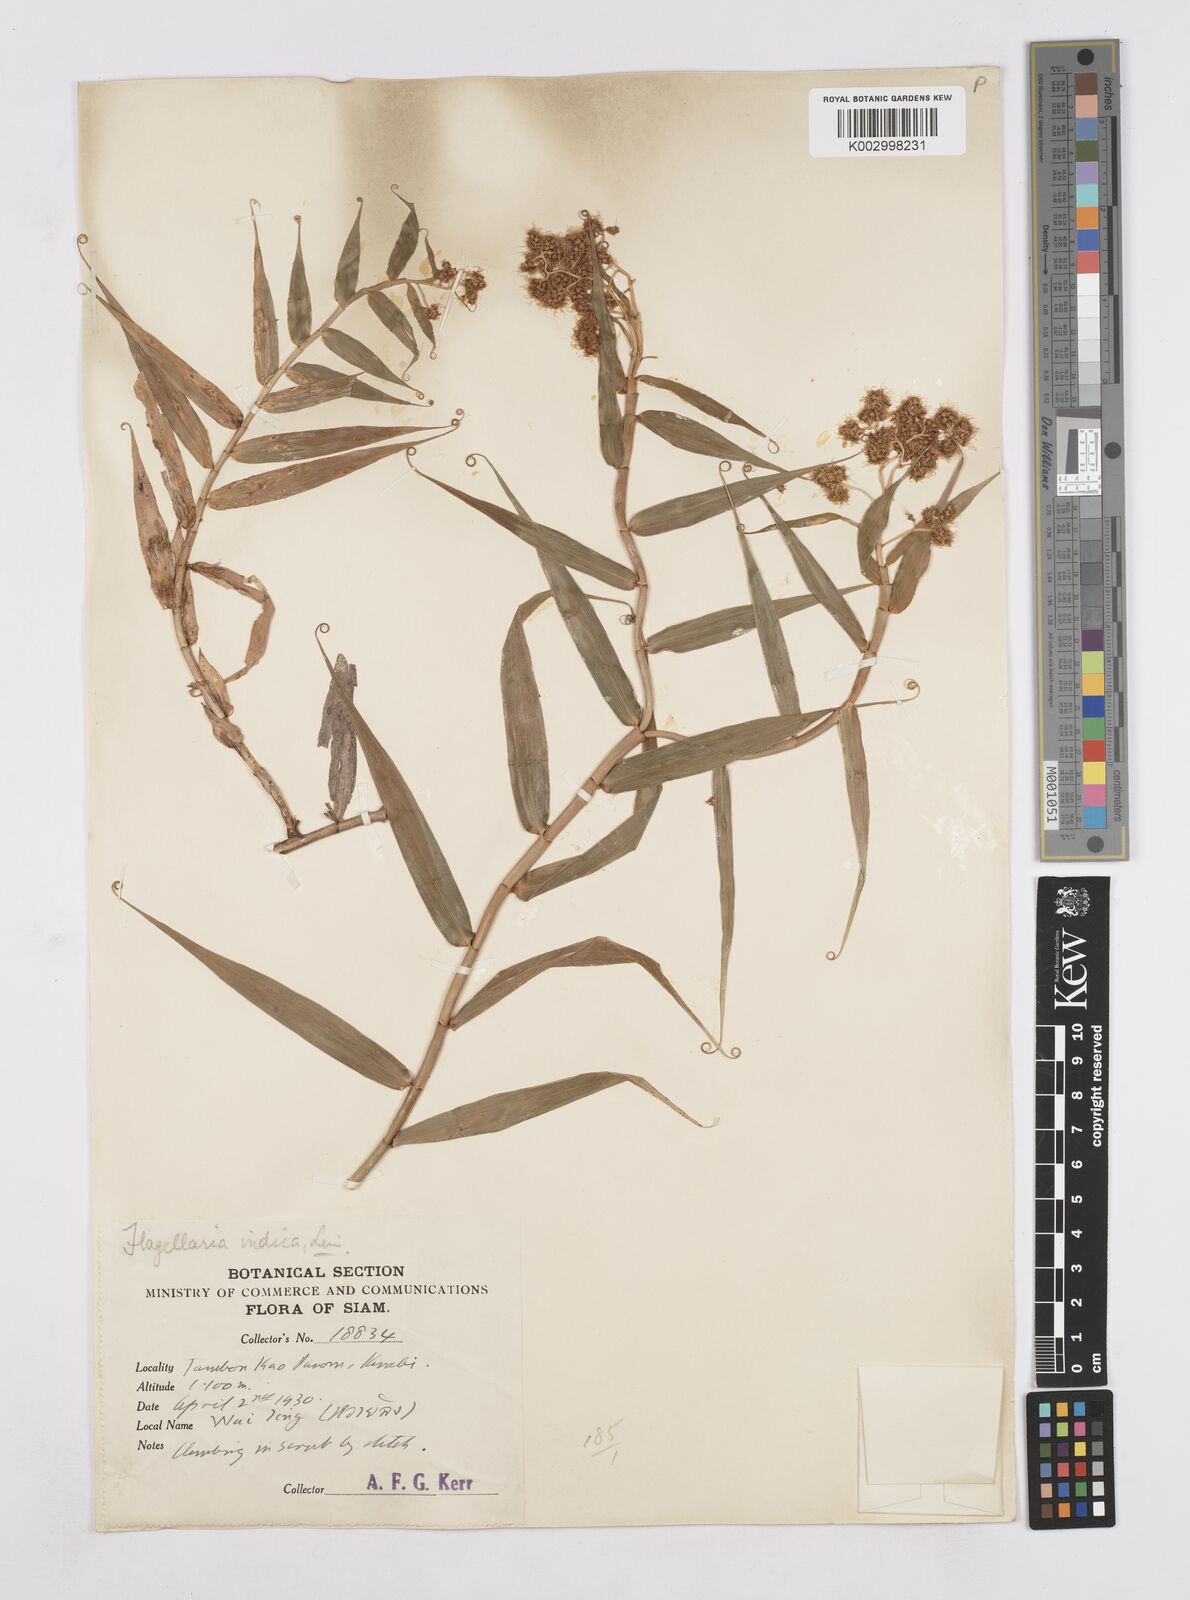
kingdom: Plantae
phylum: Tracheophyta
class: Liliopsida
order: Poales
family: Flagellariaceae
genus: Flagellaria
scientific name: Flagellaria indica
